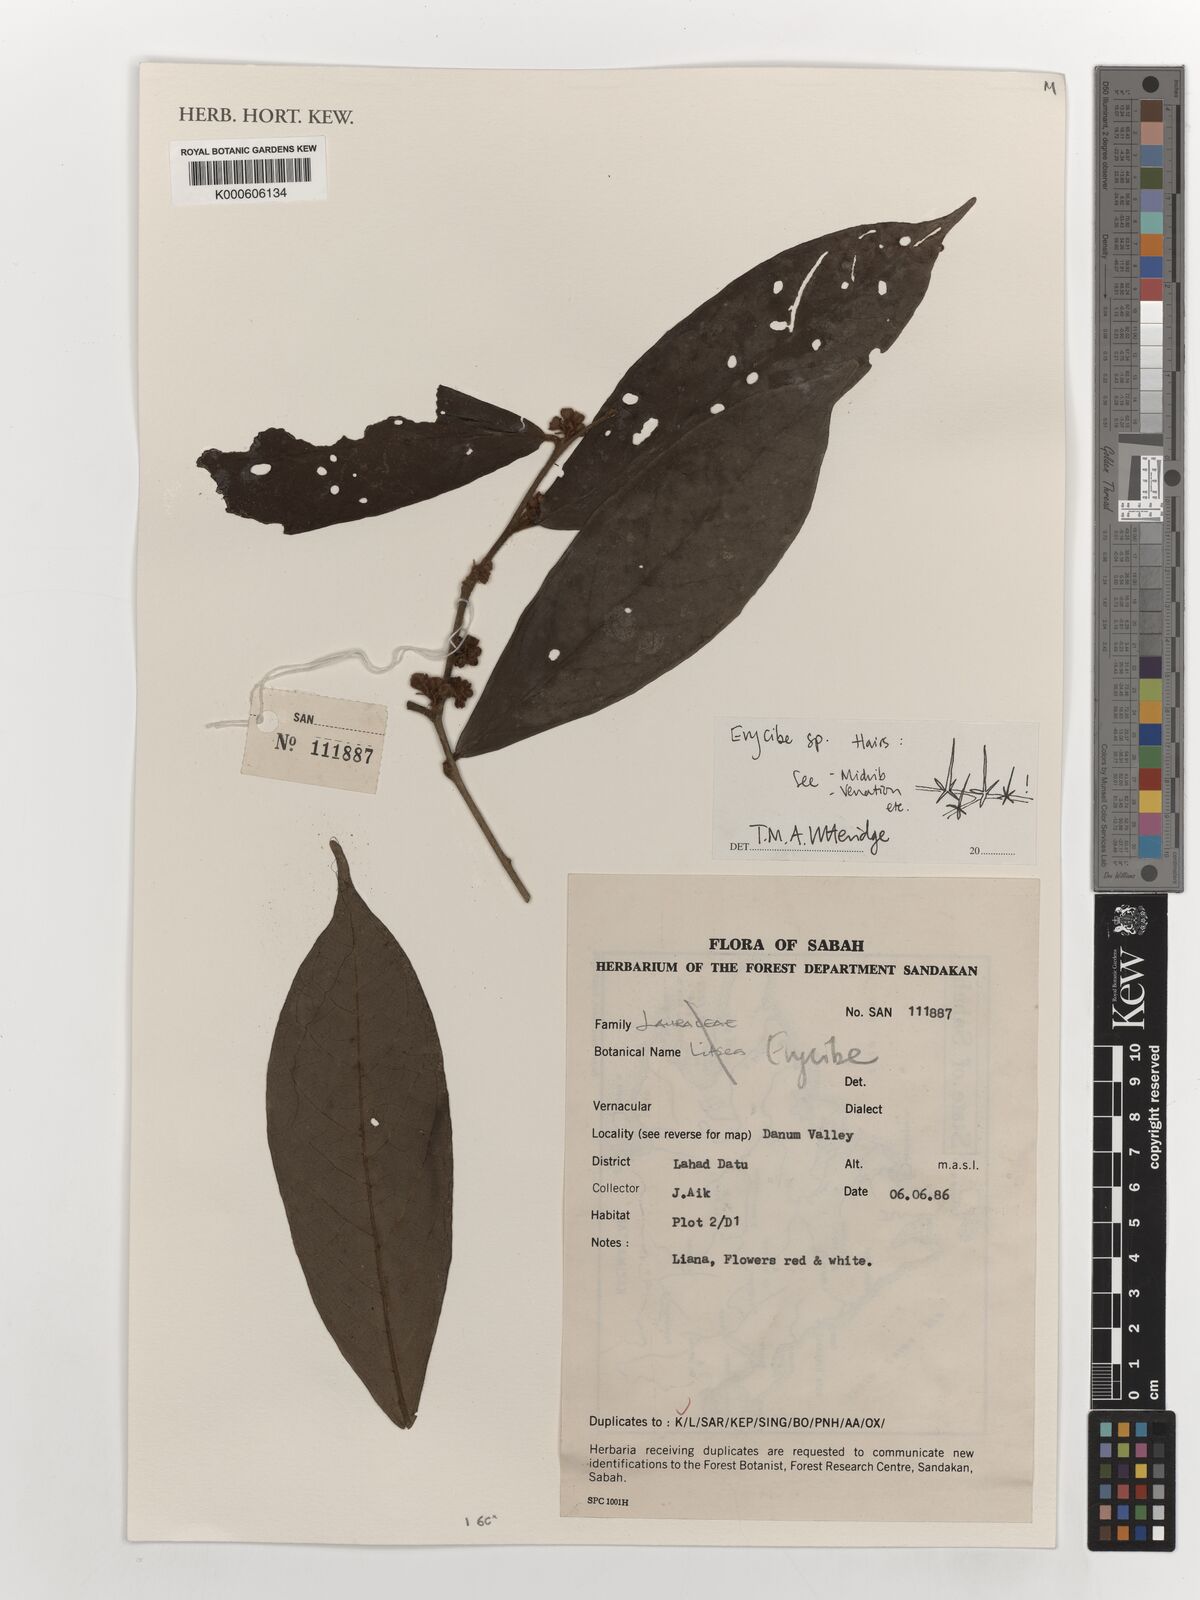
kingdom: Plantae
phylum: Tracheophyta
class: Magnoliopsida
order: Solanales
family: Convolvulaceae
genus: Erycibe
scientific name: Erycibe
